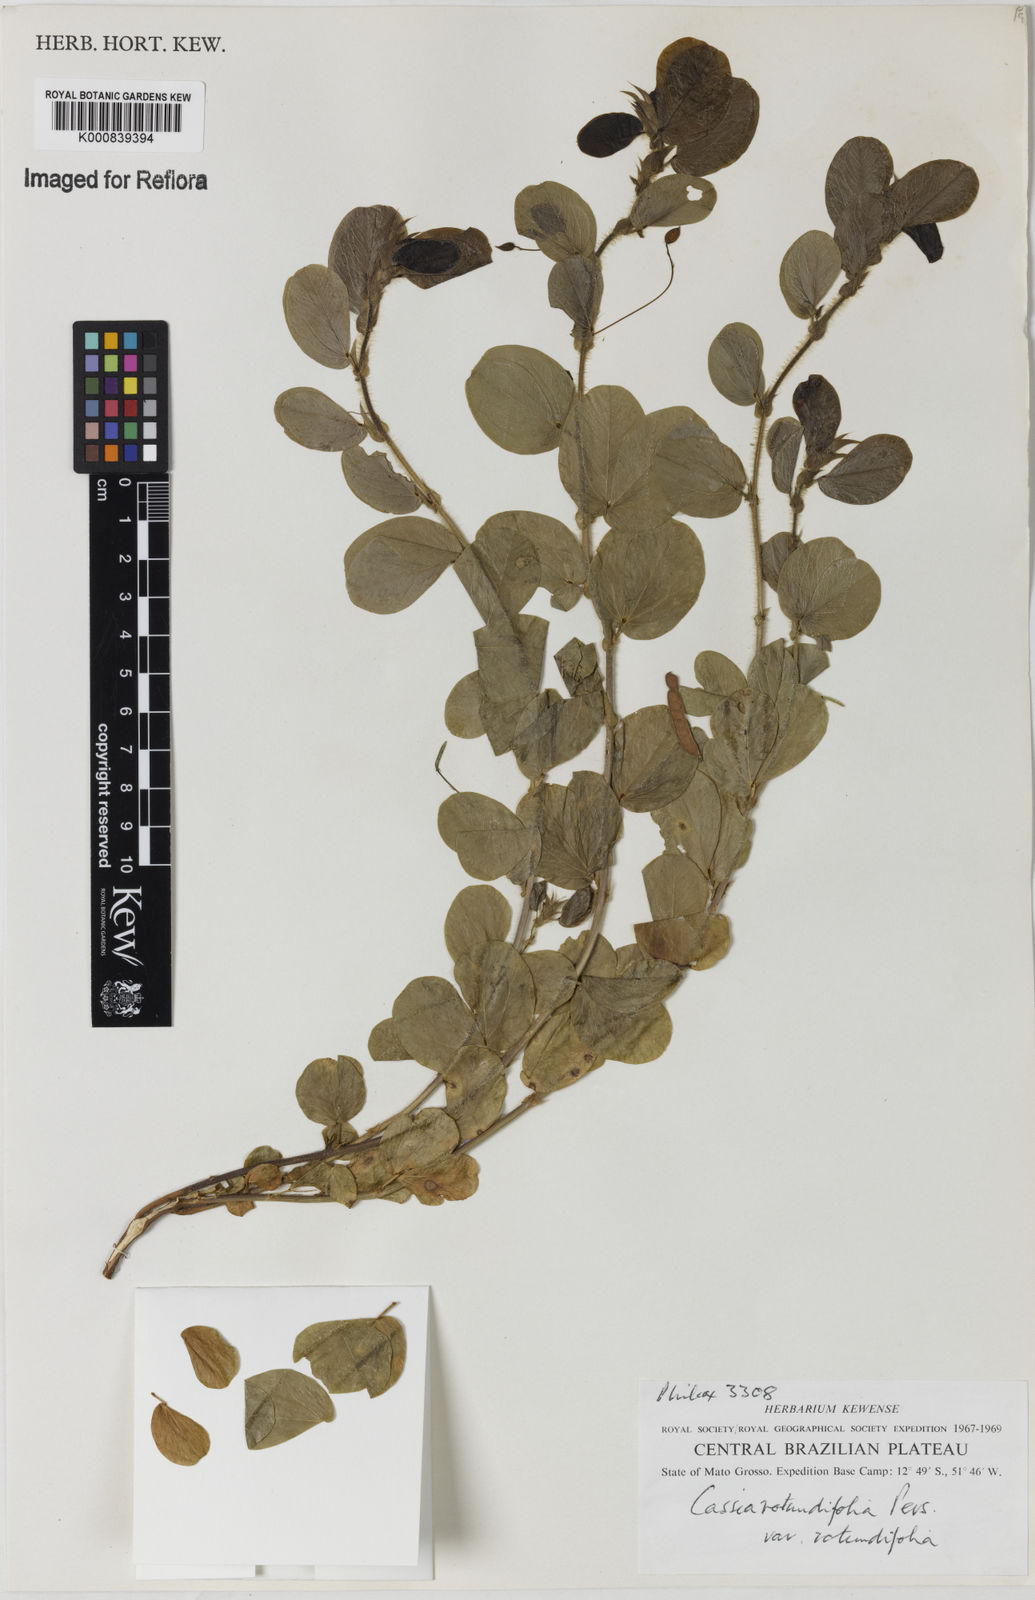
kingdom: Plantae
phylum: Tracheophyta
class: Magnoliopsida
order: Fabales
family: Fabaceae
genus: Chamaecrista
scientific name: Chamaecrista rotundifolia
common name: Round-leaf cassia
